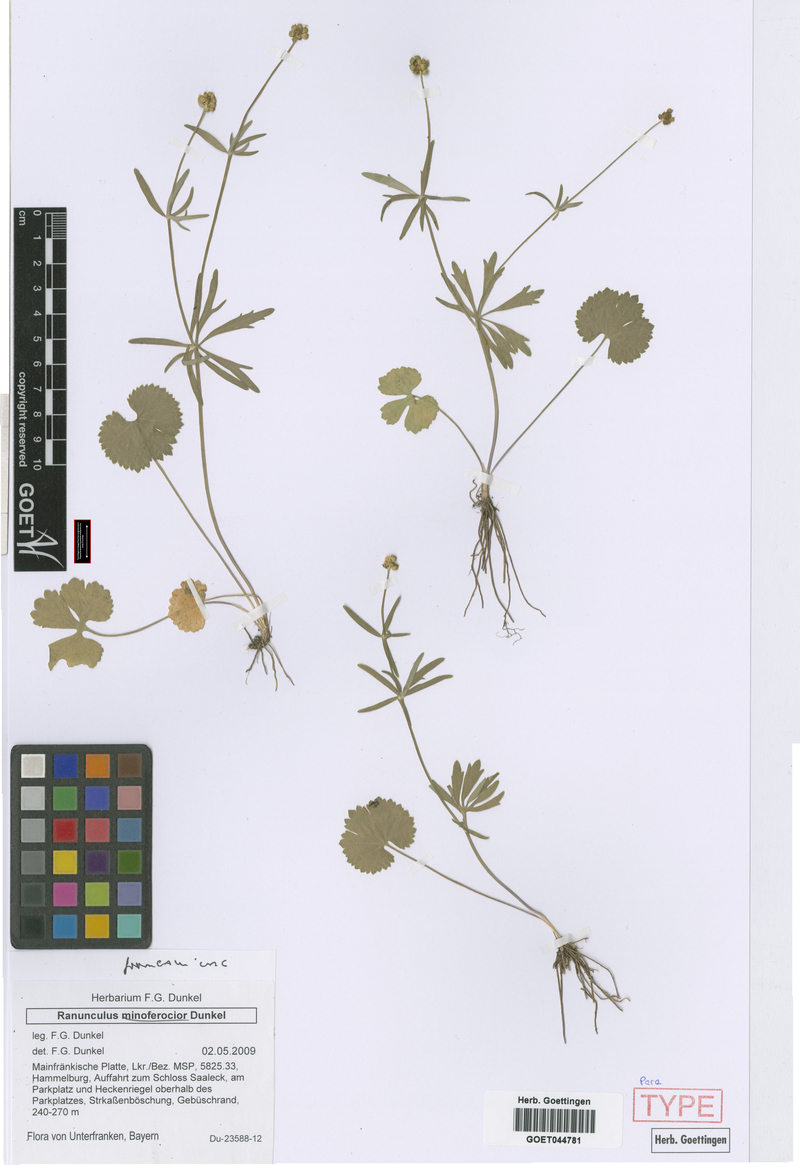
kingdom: Plantae
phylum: Tracheophyta
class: Magnoliopsida
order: Ranunculales
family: Ranunculaceae
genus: Ranunculus
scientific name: Ranunculus franconicus
